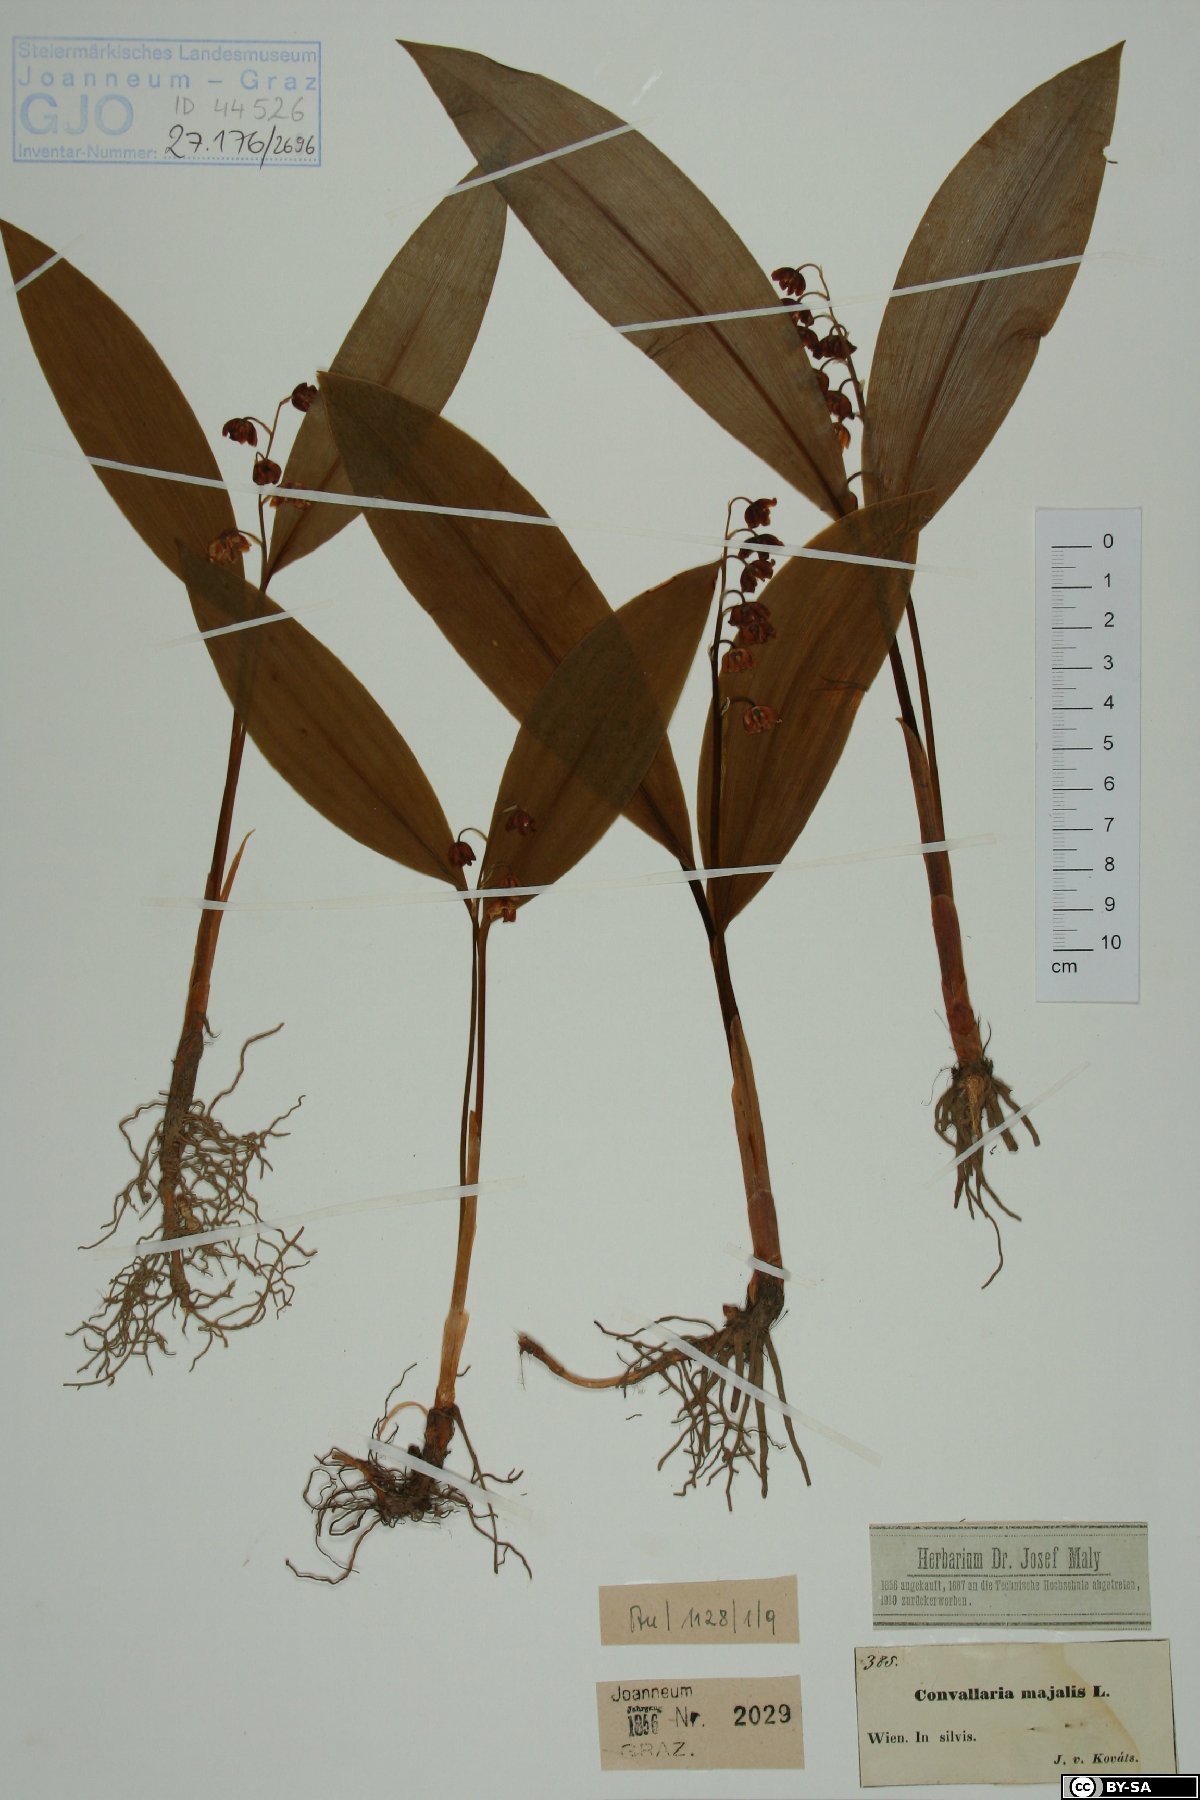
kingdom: Plantae
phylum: Tracheophyta
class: Liliopsida
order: Asparagales
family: Asparagaceae
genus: Convallaria
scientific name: Convallaria majalis
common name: Lily-of-the-valley
